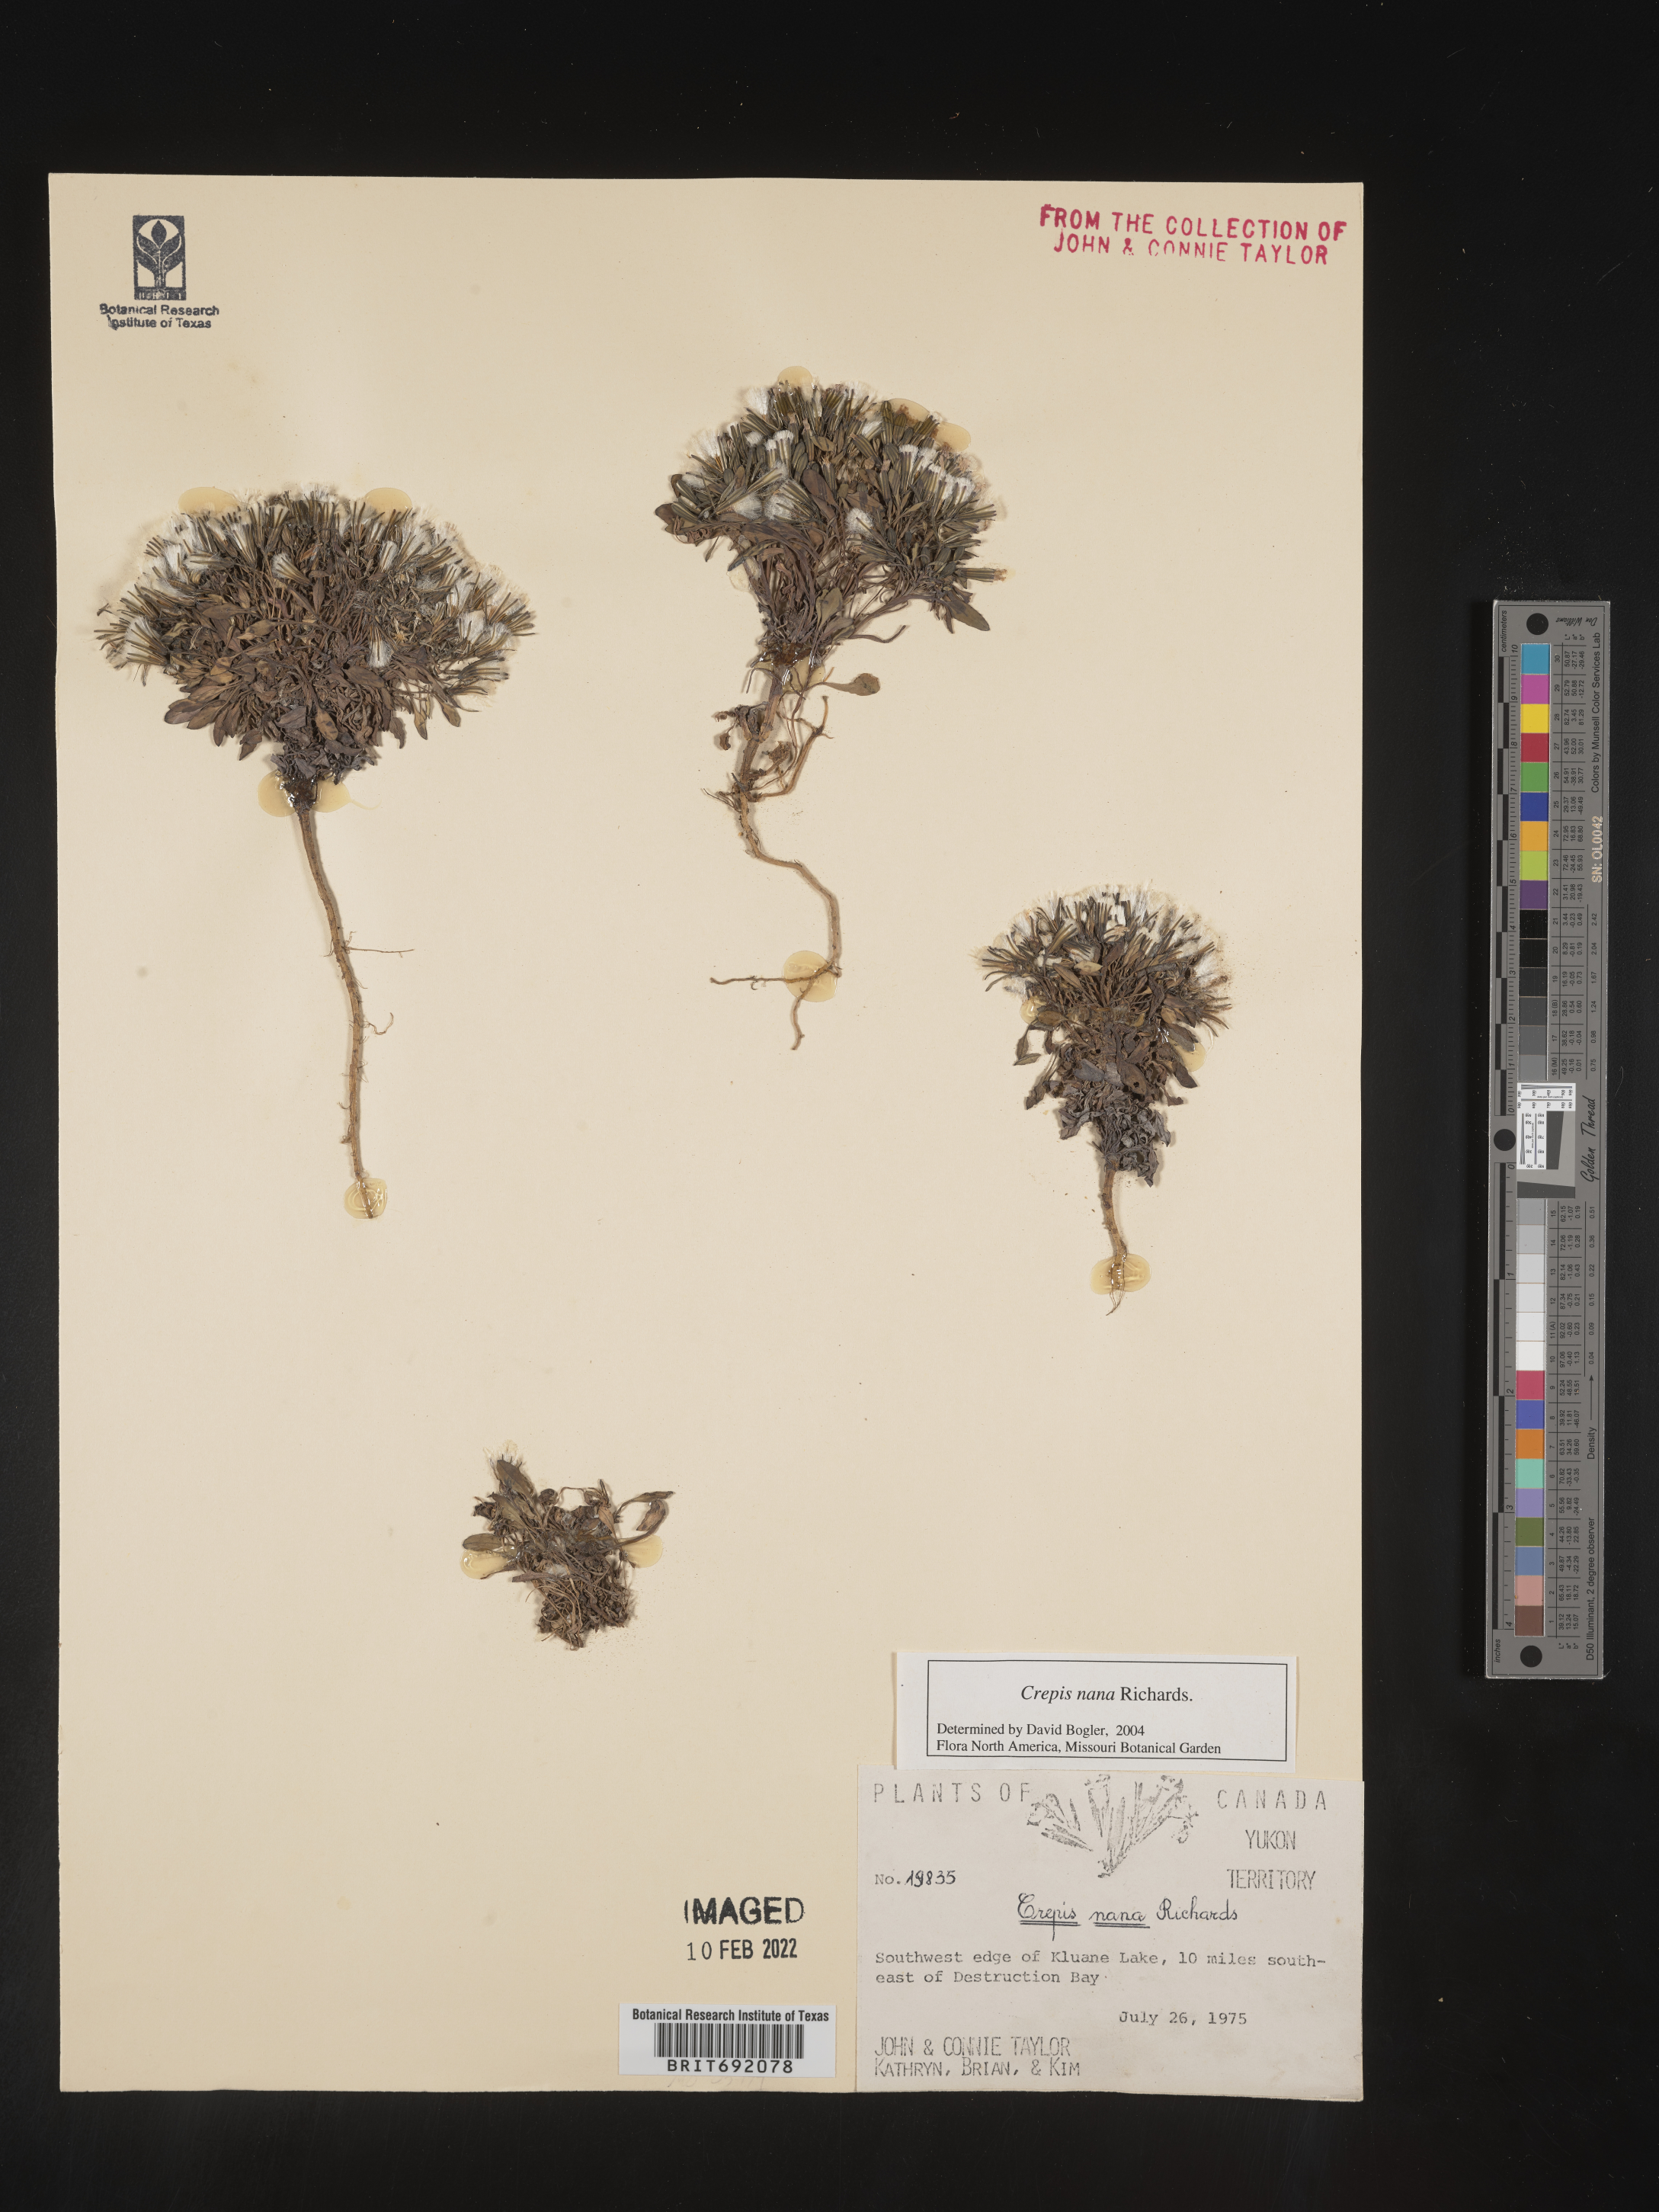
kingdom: Plantae
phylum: Tracheophyta
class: Magnoliopsida
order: Asterales
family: Asteraceae
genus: Crepis
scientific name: Crepis
